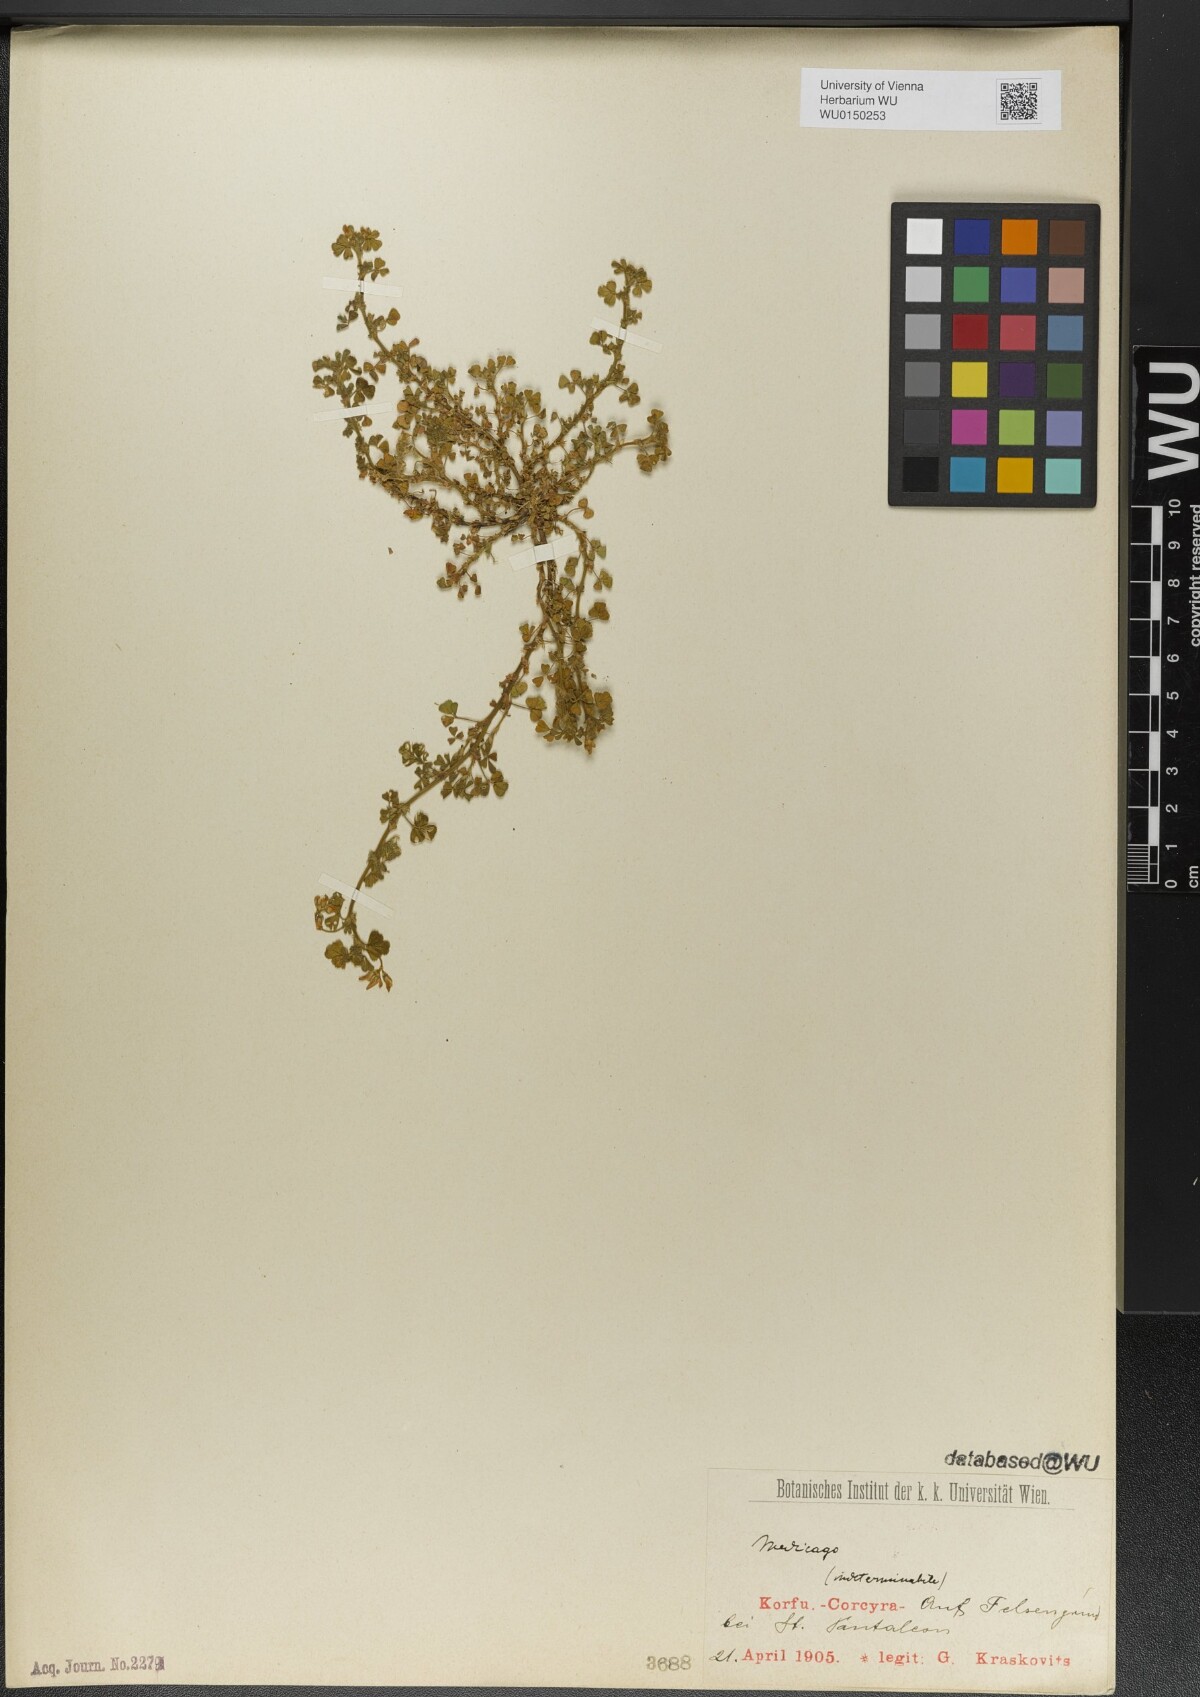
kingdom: Plantae
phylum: Tracheophyta
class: Magnoliopsida
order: Fabales
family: Fabaceae
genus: Medicago
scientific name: Medicago
